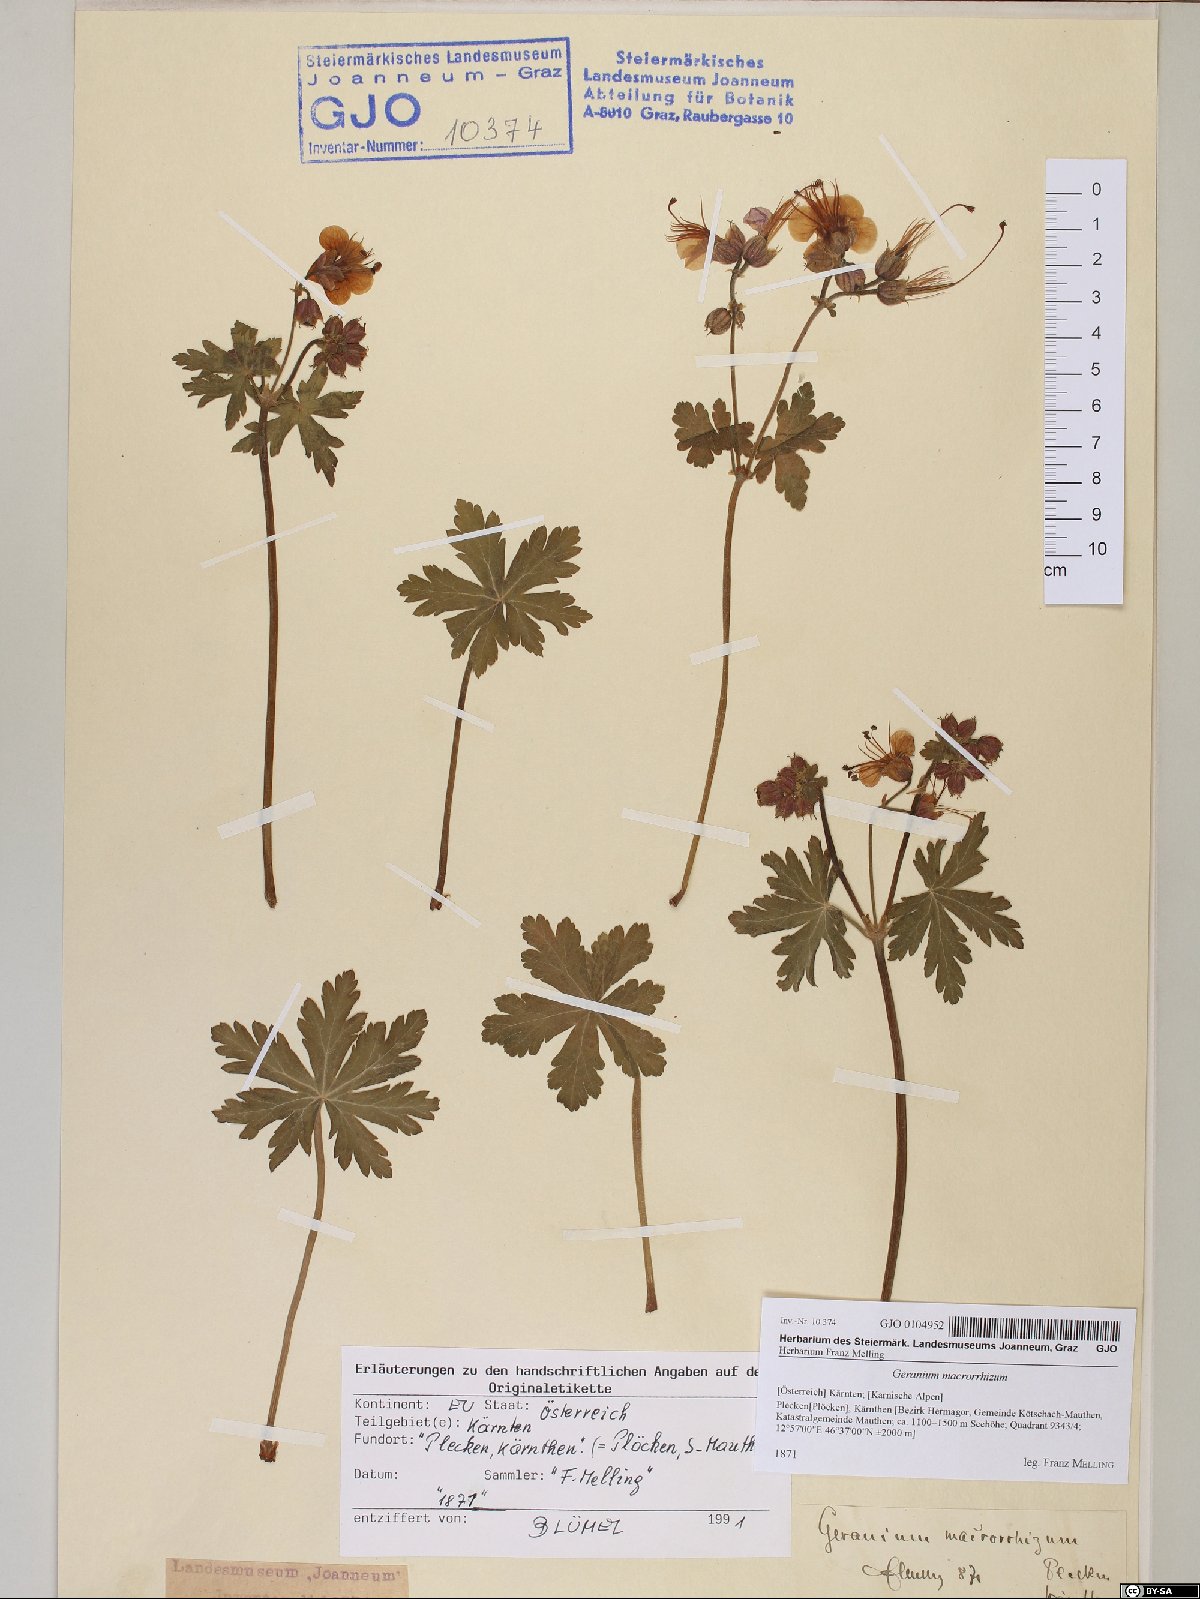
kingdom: Plantae
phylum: Tracheophyta
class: Magnoliopsida
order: Geraniales
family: Geraniaceae
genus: Geranium
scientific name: Geranium macrorrhizum
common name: Rock crane's-bill
